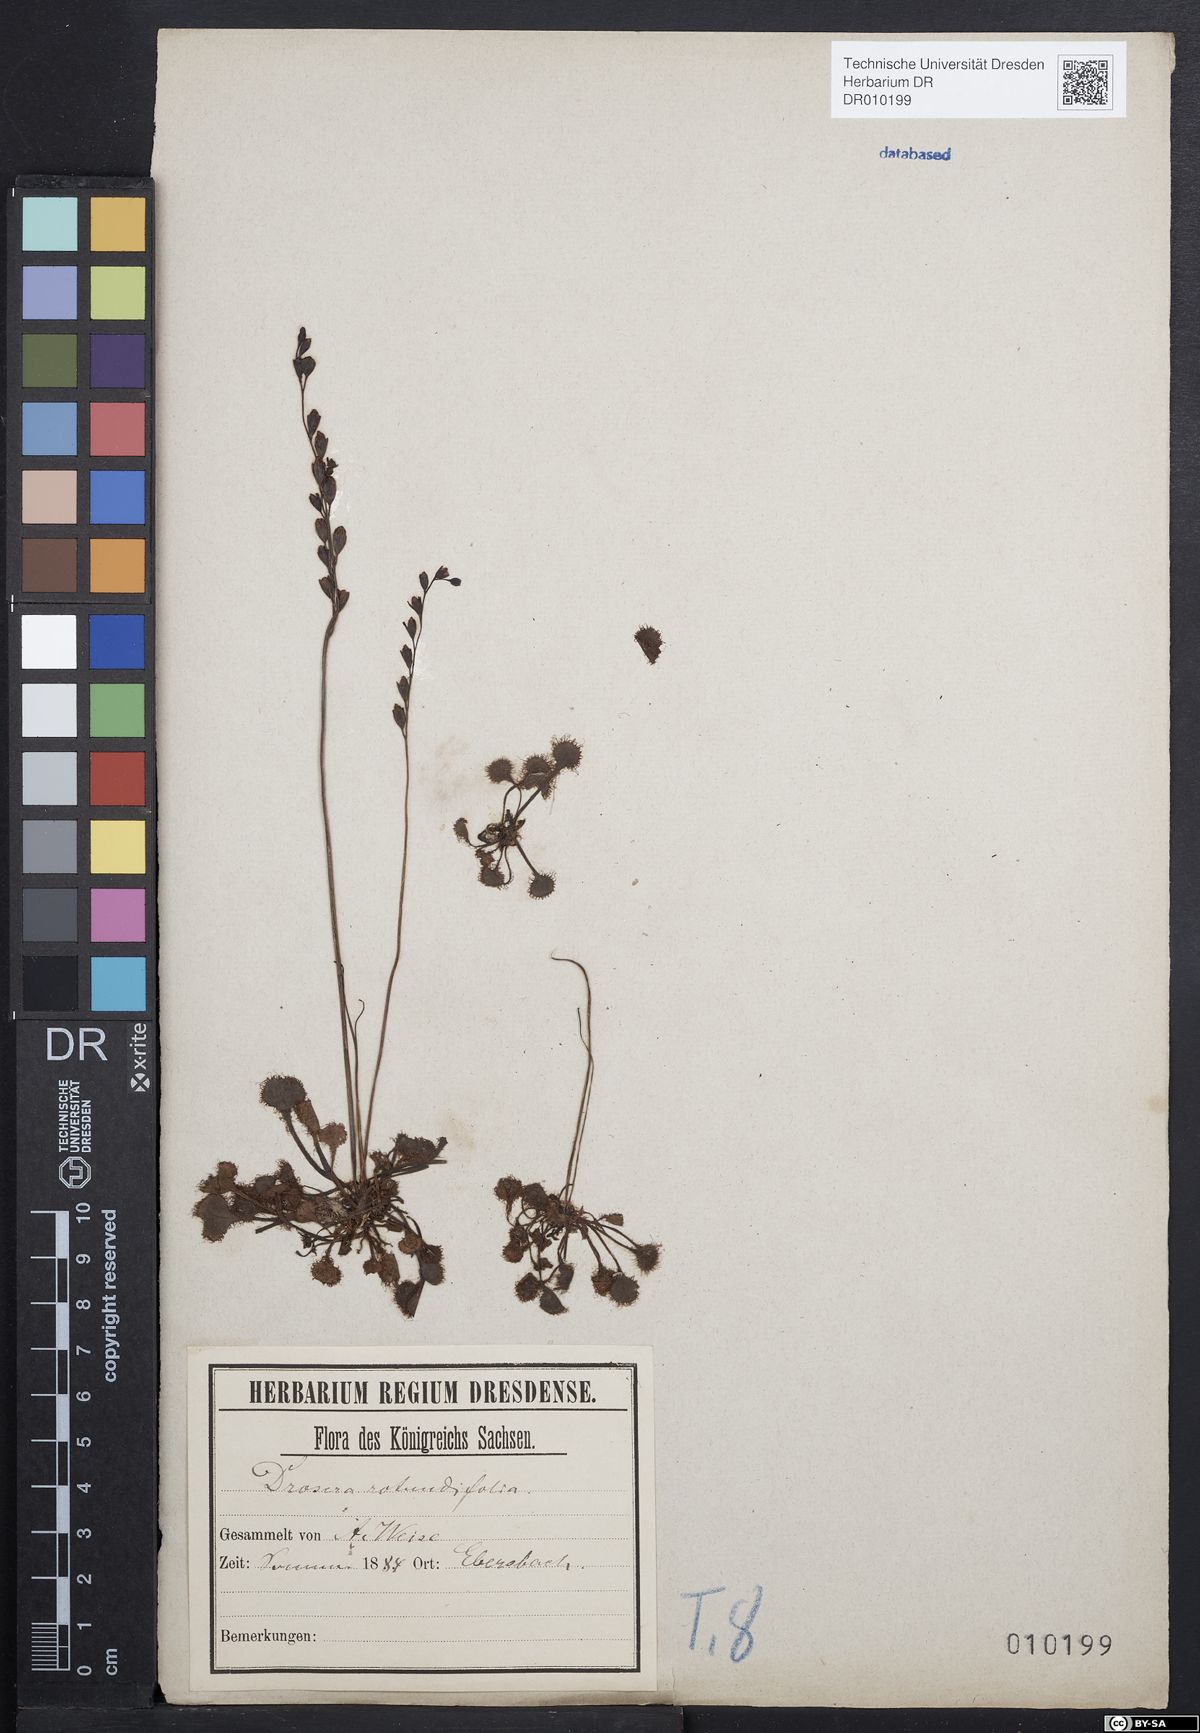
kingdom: Plantae
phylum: Tracheophyta
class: Magnoliopsida
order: Caryophyllales
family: Droseraceae
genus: Drosera
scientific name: Drosera rotundifolia
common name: Round-leaved sundew
